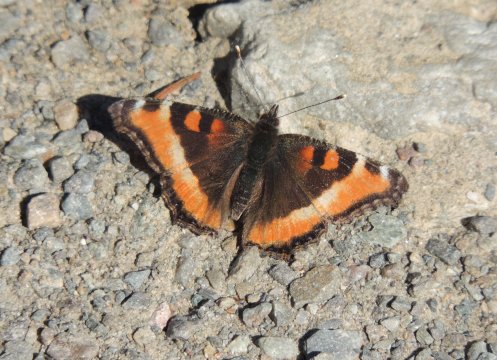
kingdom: Animalia
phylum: Arthropoda
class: Insecta
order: Lepidoptera
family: Nymphalidae
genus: Aglais
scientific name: Aglais milberti
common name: Milbert's Tortoiseshell
